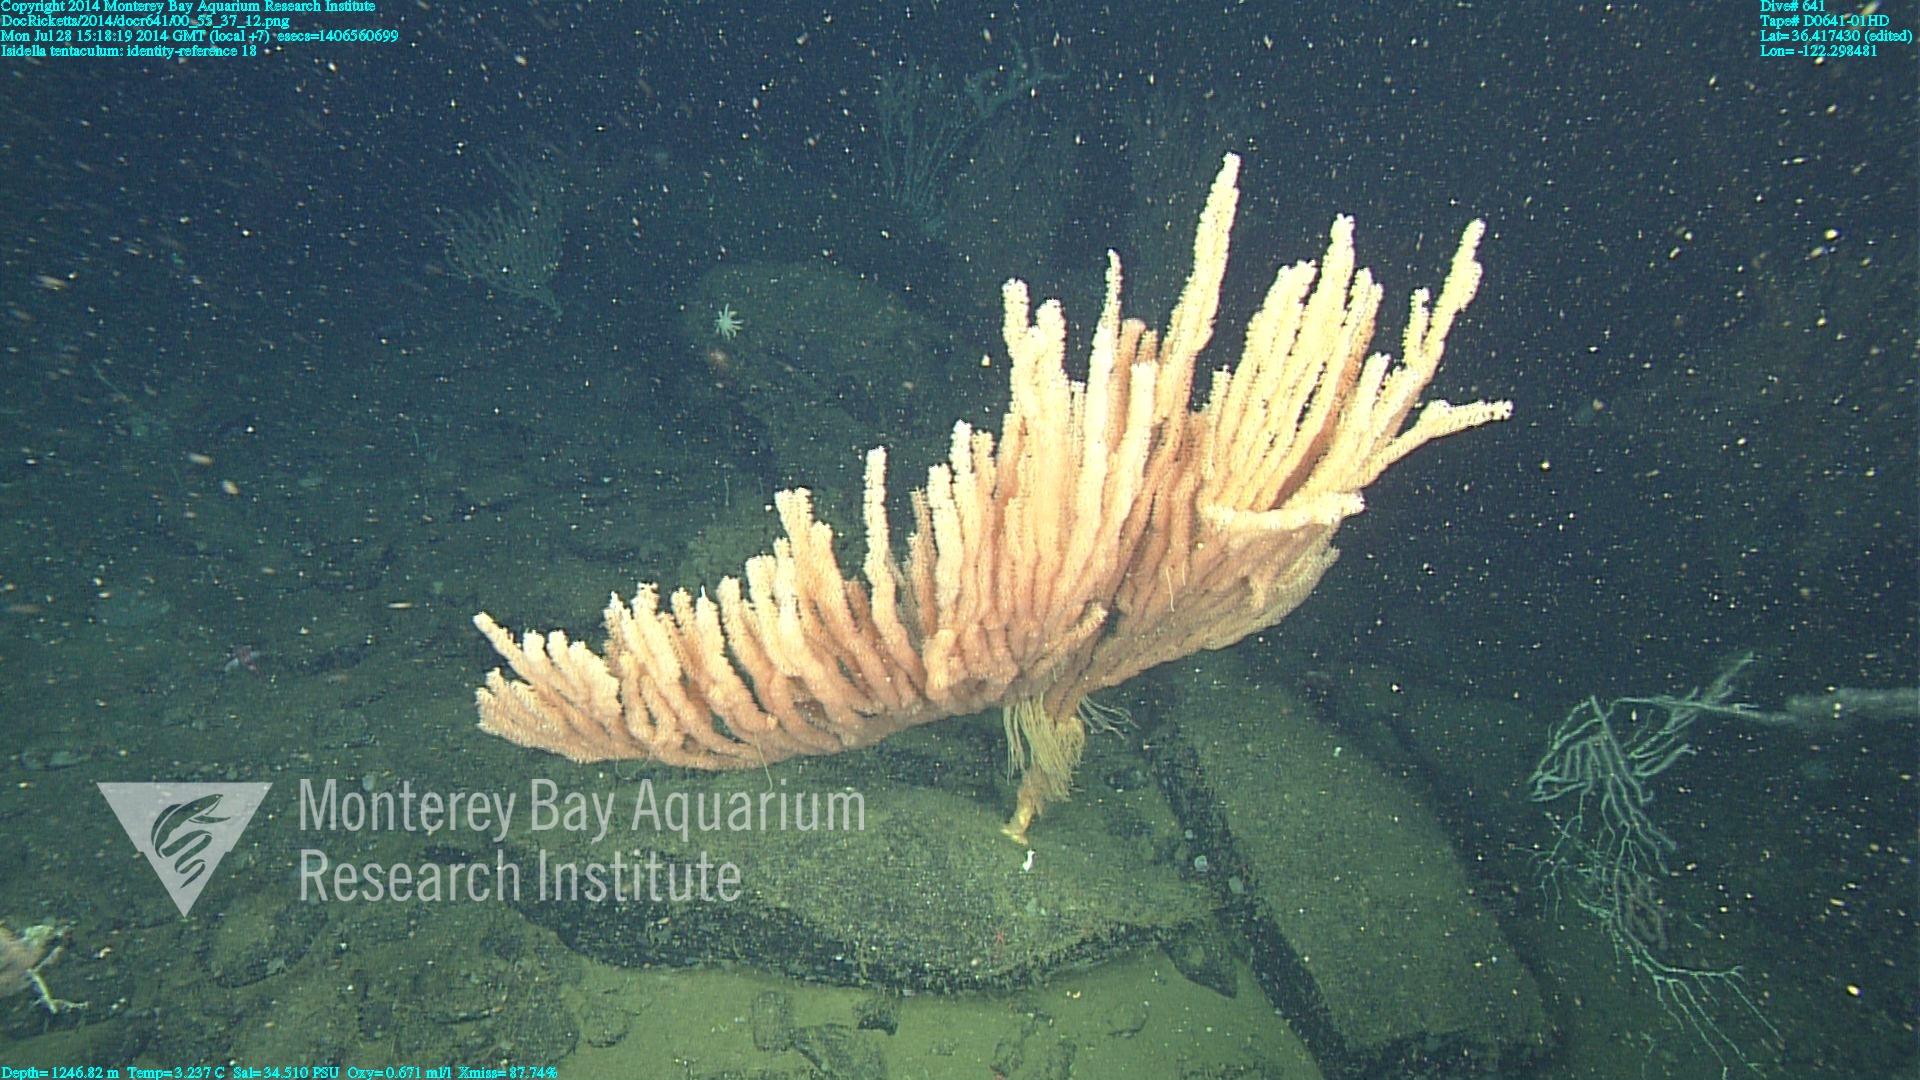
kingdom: Animalia
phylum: Cnidaria
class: Anthozoa
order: Scleralcyonacea
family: Keratoisididae
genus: Isidella
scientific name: Isidella tentaculum
